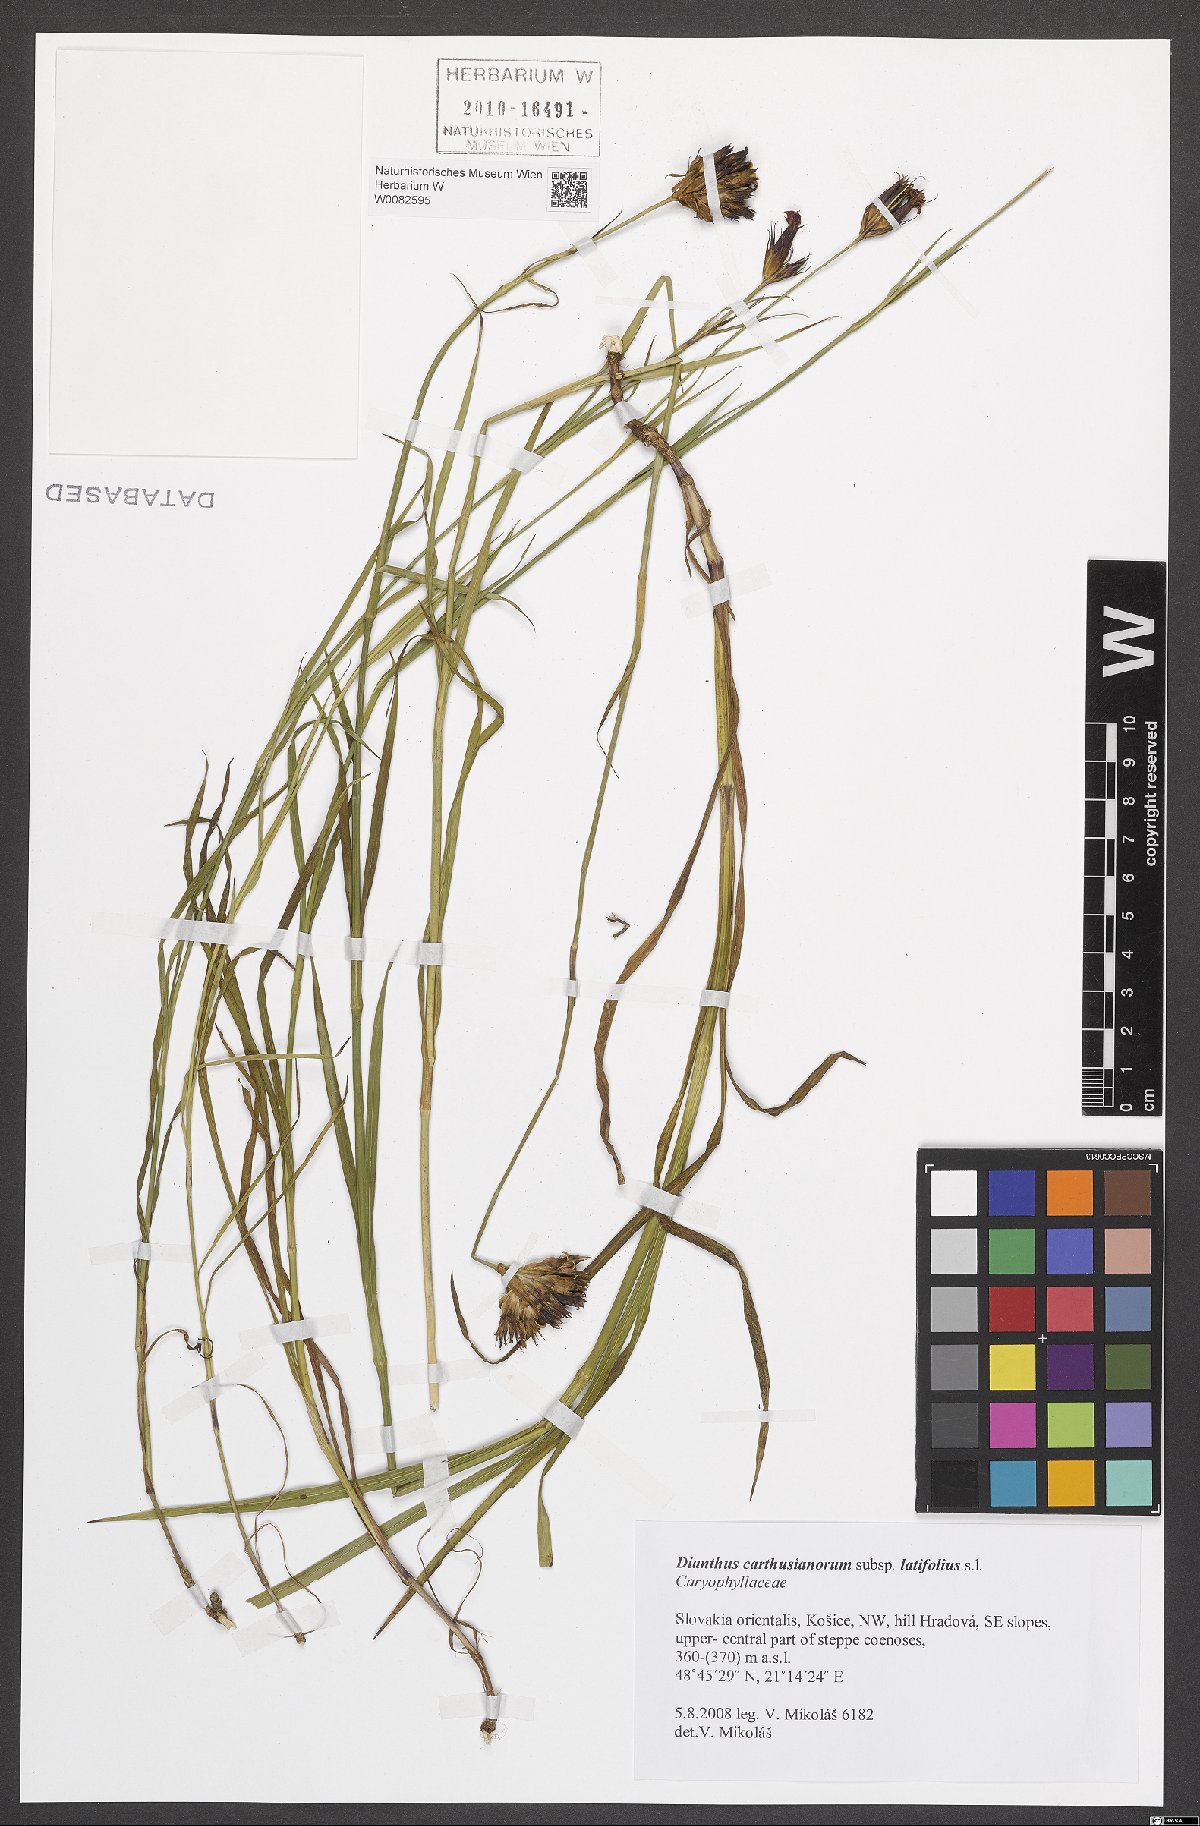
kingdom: Plantae
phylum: Tracheophyta
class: Magnoliopsida
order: Caryophyllales
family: Caryophyllaceae
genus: Dianthus
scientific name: Dianthus carthusianorum
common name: Carthusian pink
